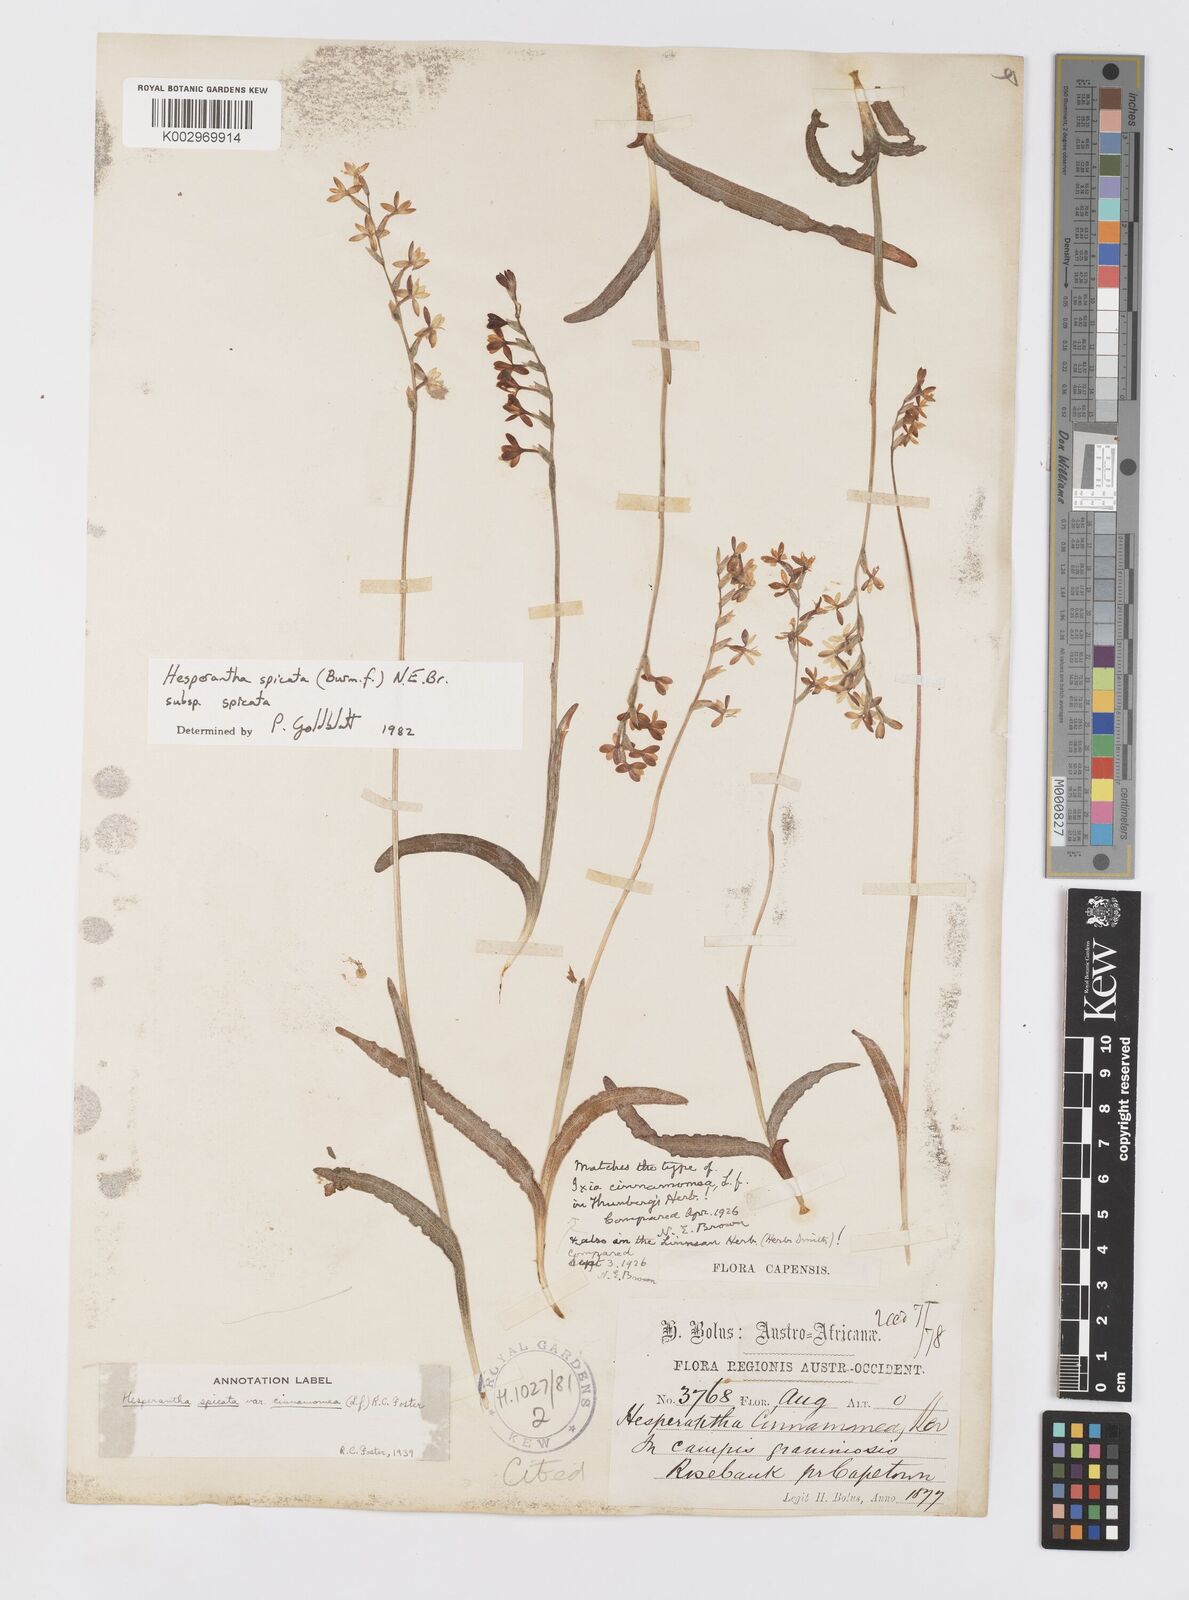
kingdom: Plantae
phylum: Tracheophyta
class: Liliopsida
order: Asparagales
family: Iridaceae
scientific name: Iridaceae
